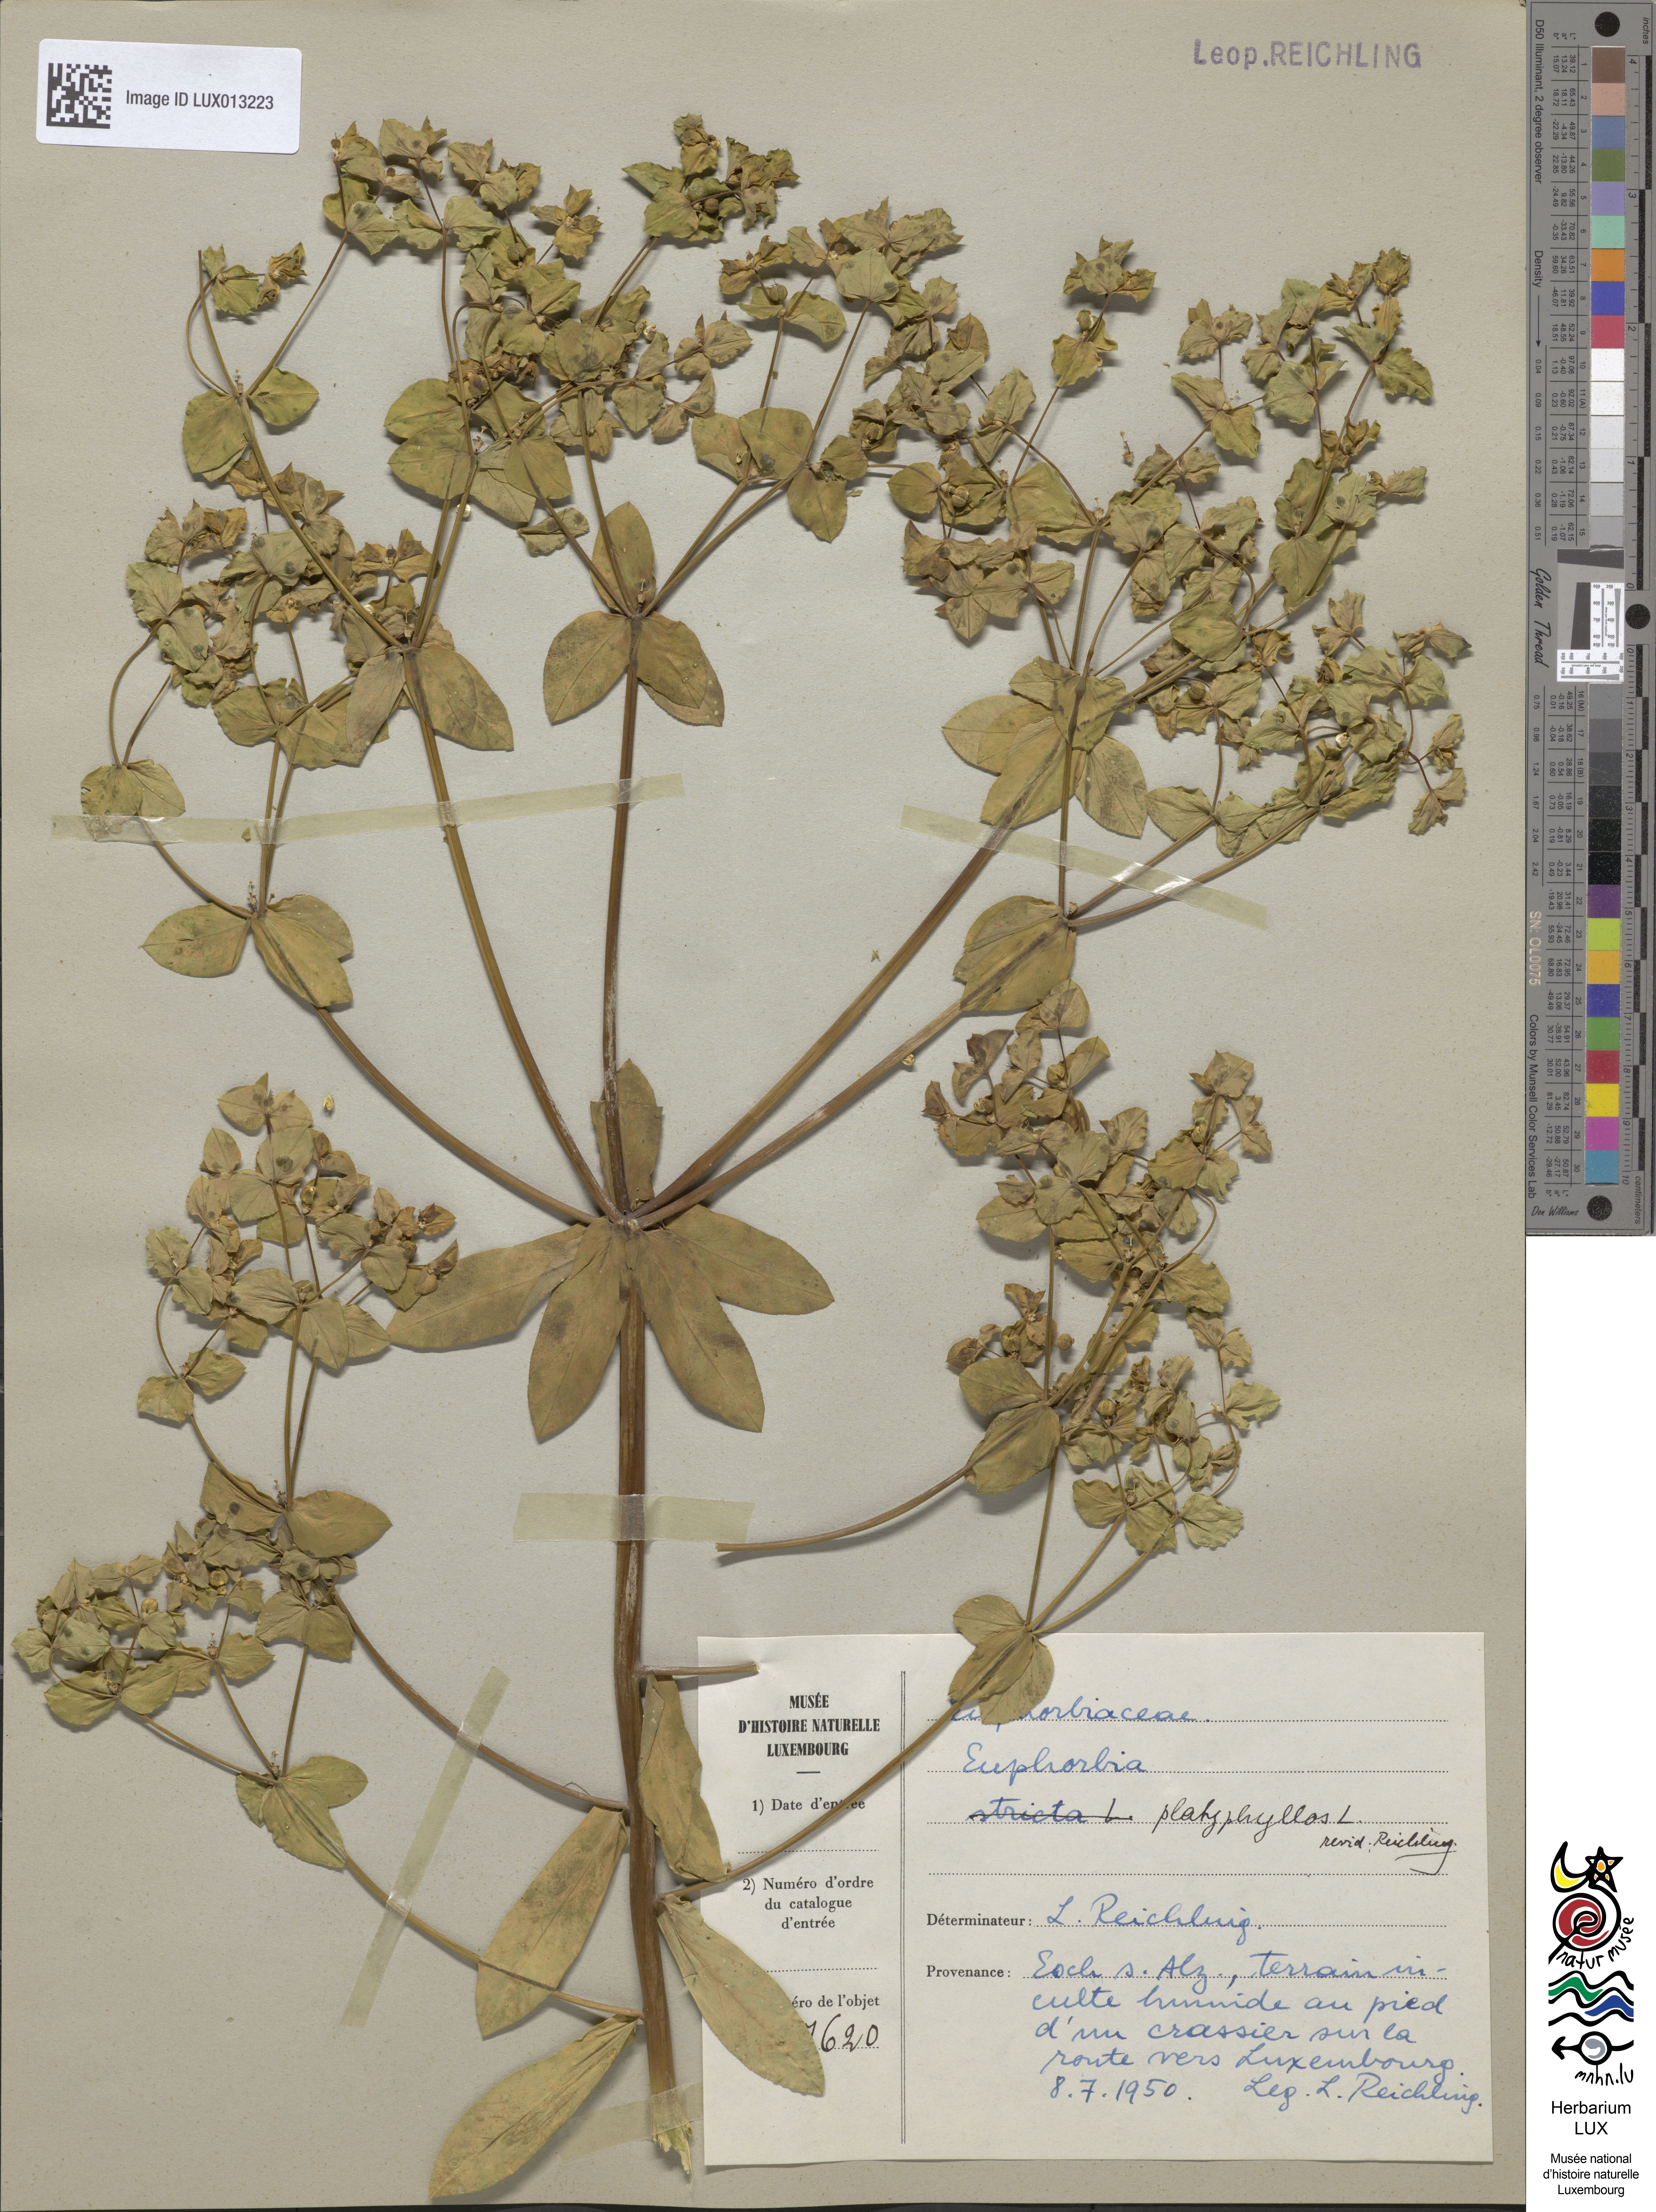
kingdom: Plantae
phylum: Tracheophyta
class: Magnoliopsida
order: Malpighiales
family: Euphorbiaceae
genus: Euphorbia
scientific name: Euphorbia platyphyllos
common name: Broad-leaved spurge
